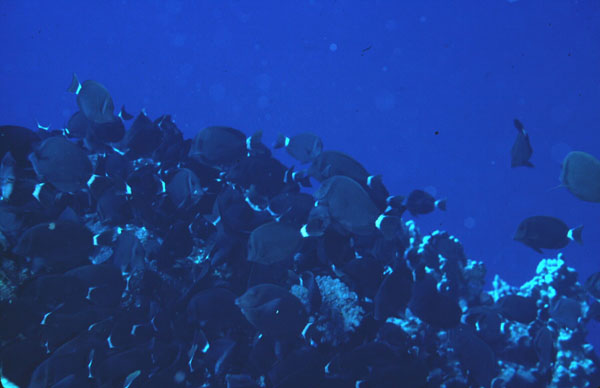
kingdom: Animalia
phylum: Chordata
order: Perciformes
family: Acanthuridae
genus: Acanthurus
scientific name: Acanthurus leucopareius
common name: Head-band surgeonfish
